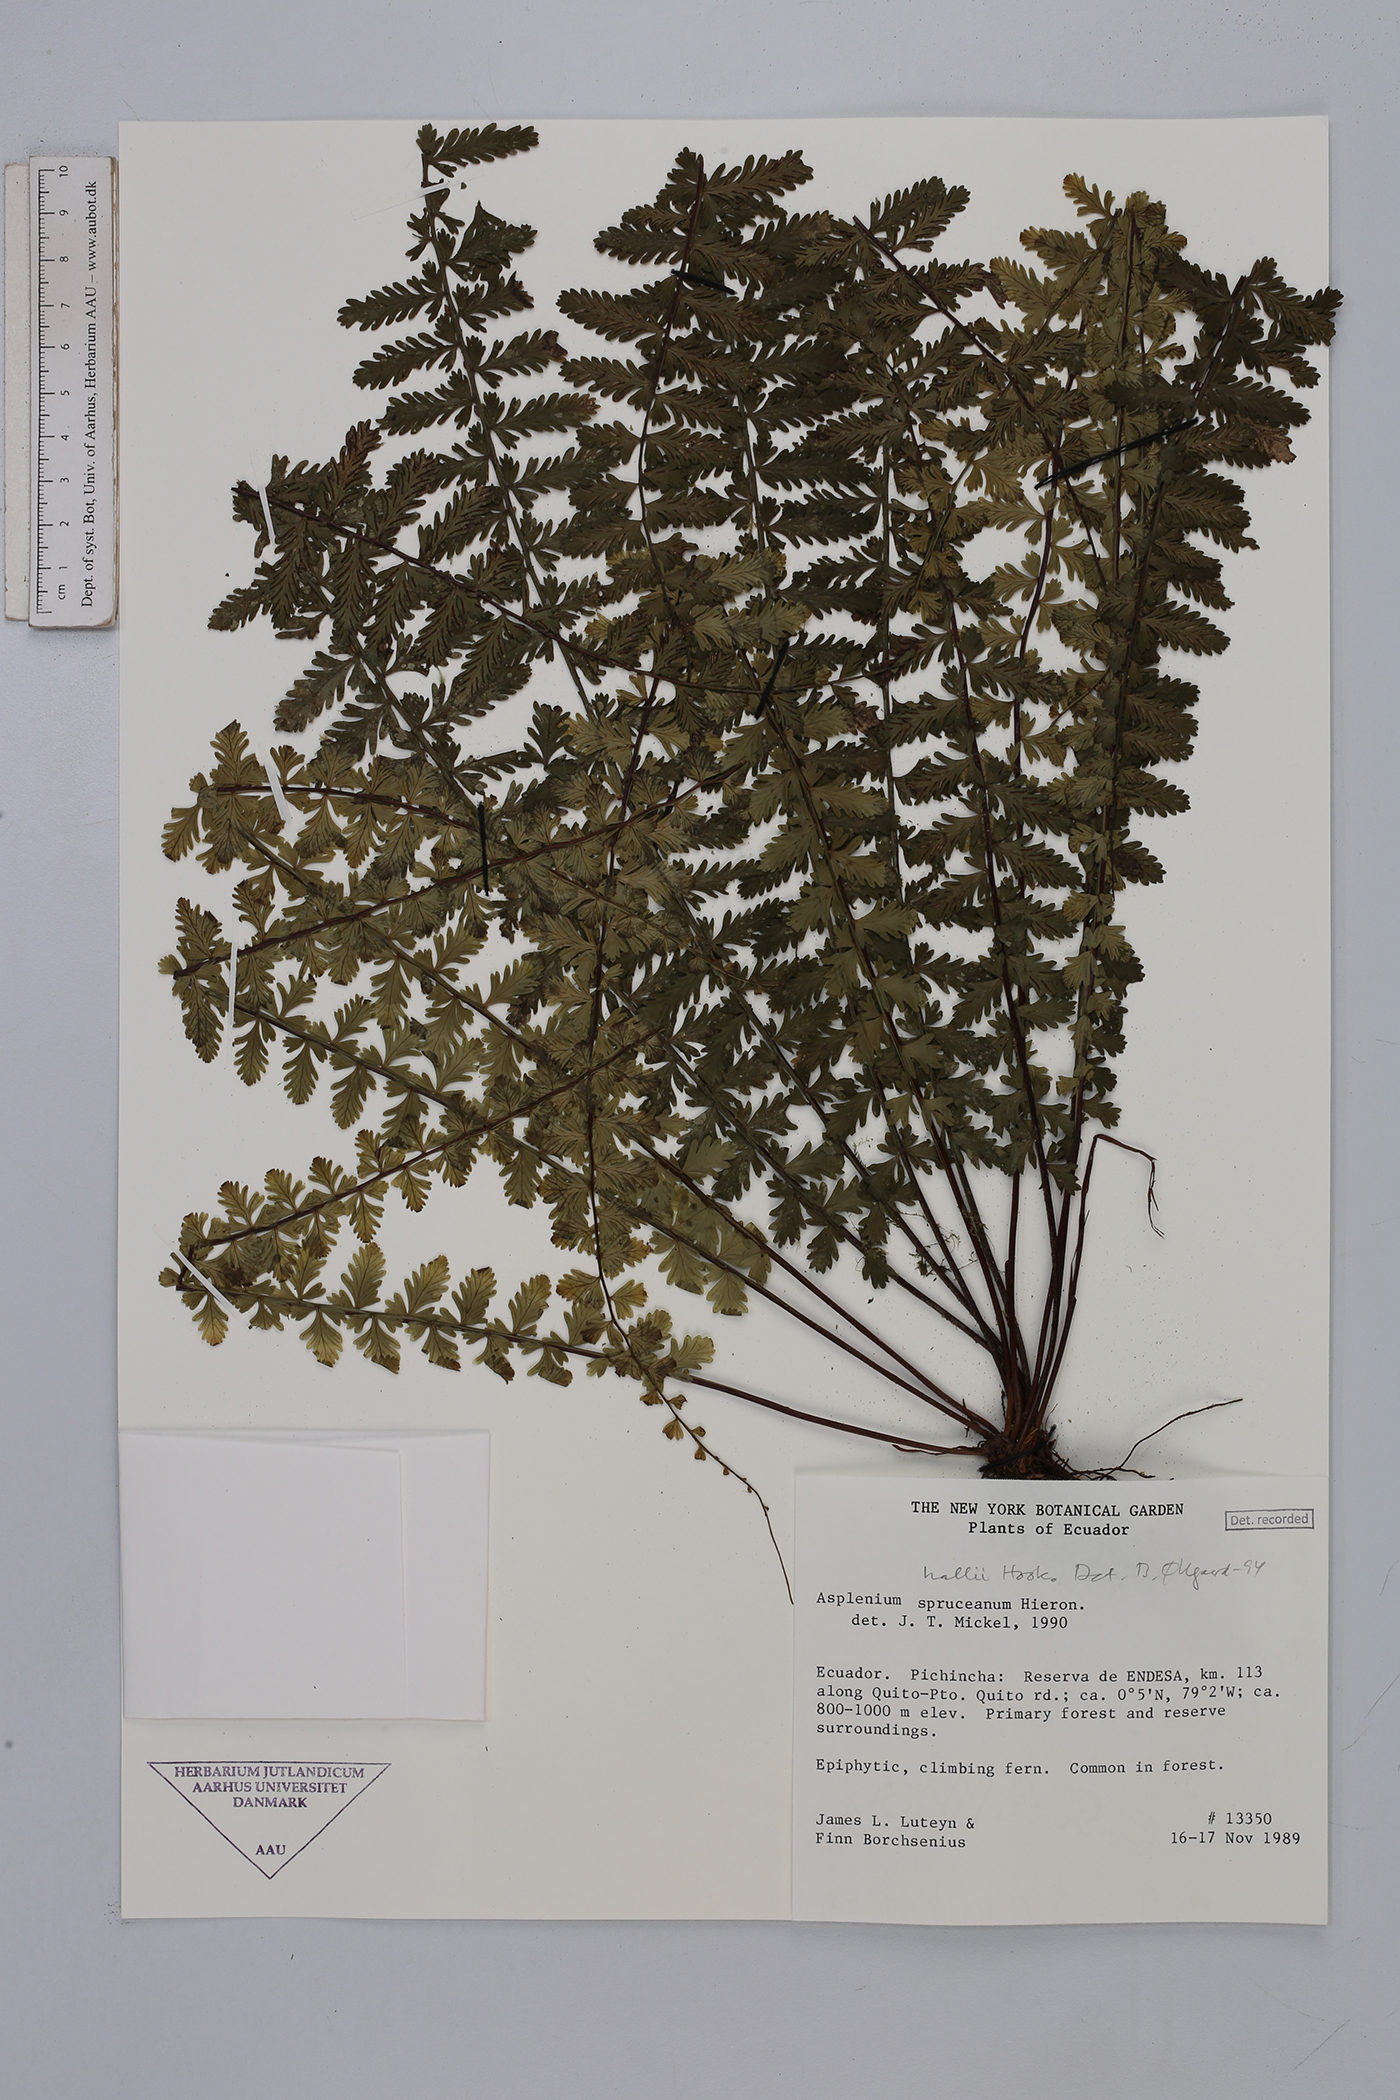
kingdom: Plantae
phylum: Tracheophyta
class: Polypodiopsida
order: Polypodiales
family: Aspleniaceae
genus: Asplenium
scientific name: Asplenium hallii
